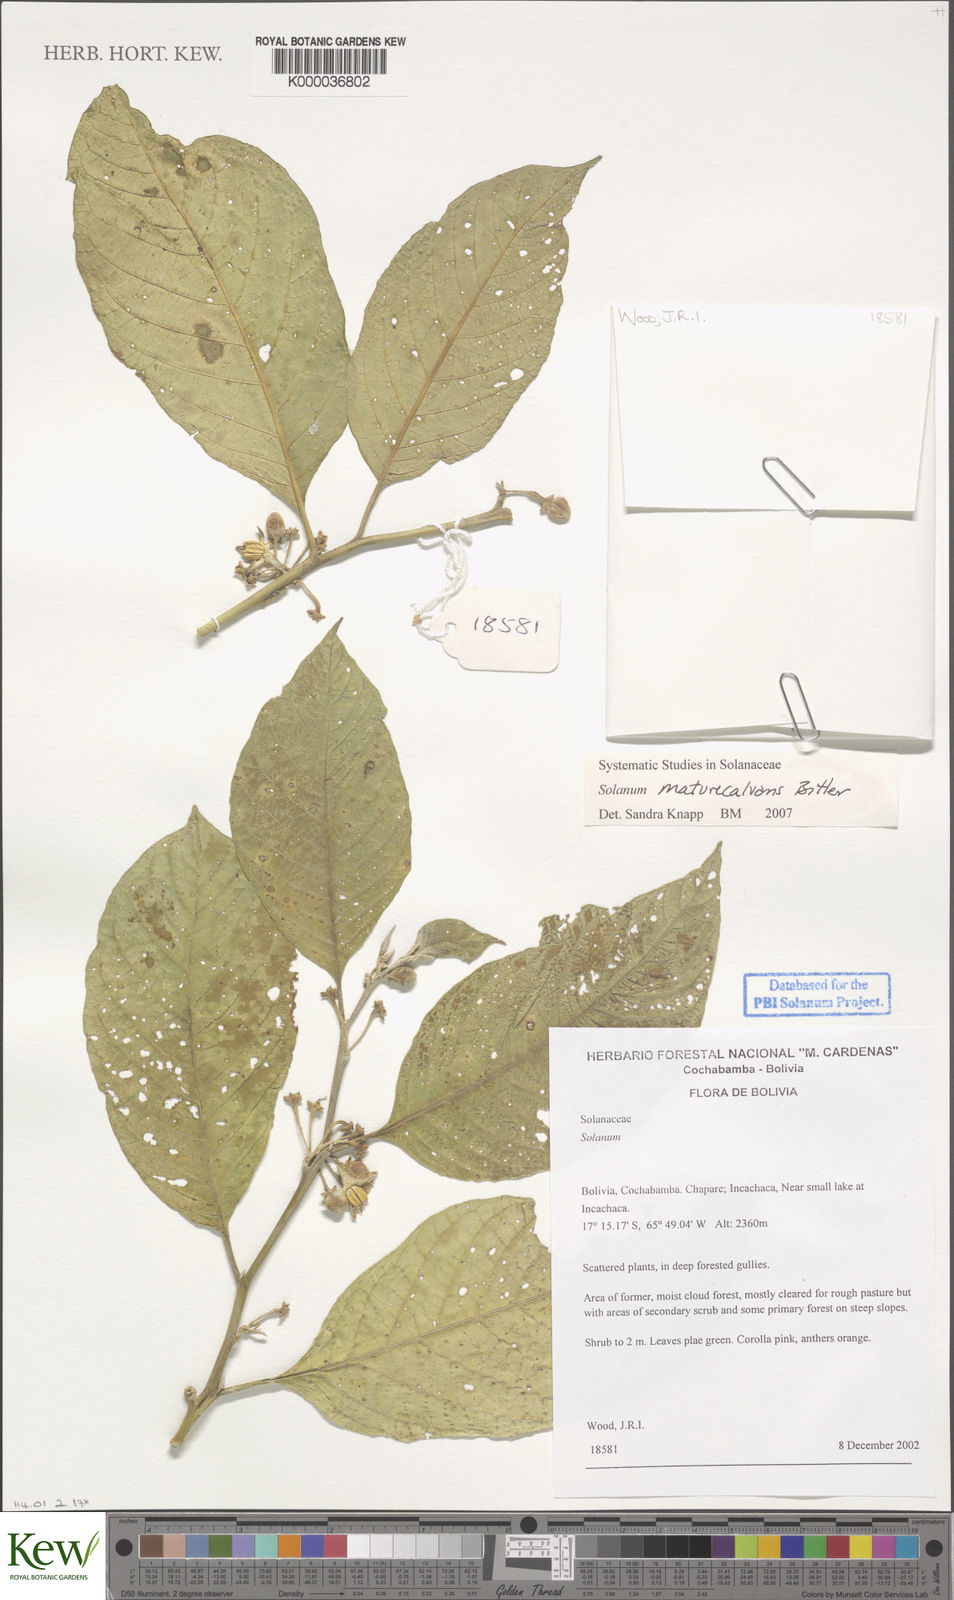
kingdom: Plantae
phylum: Tracheophyta
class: Magnoliopsida
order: Solanales
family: Solanaceae
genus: Solanum
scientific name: Solanum maturecalvans
